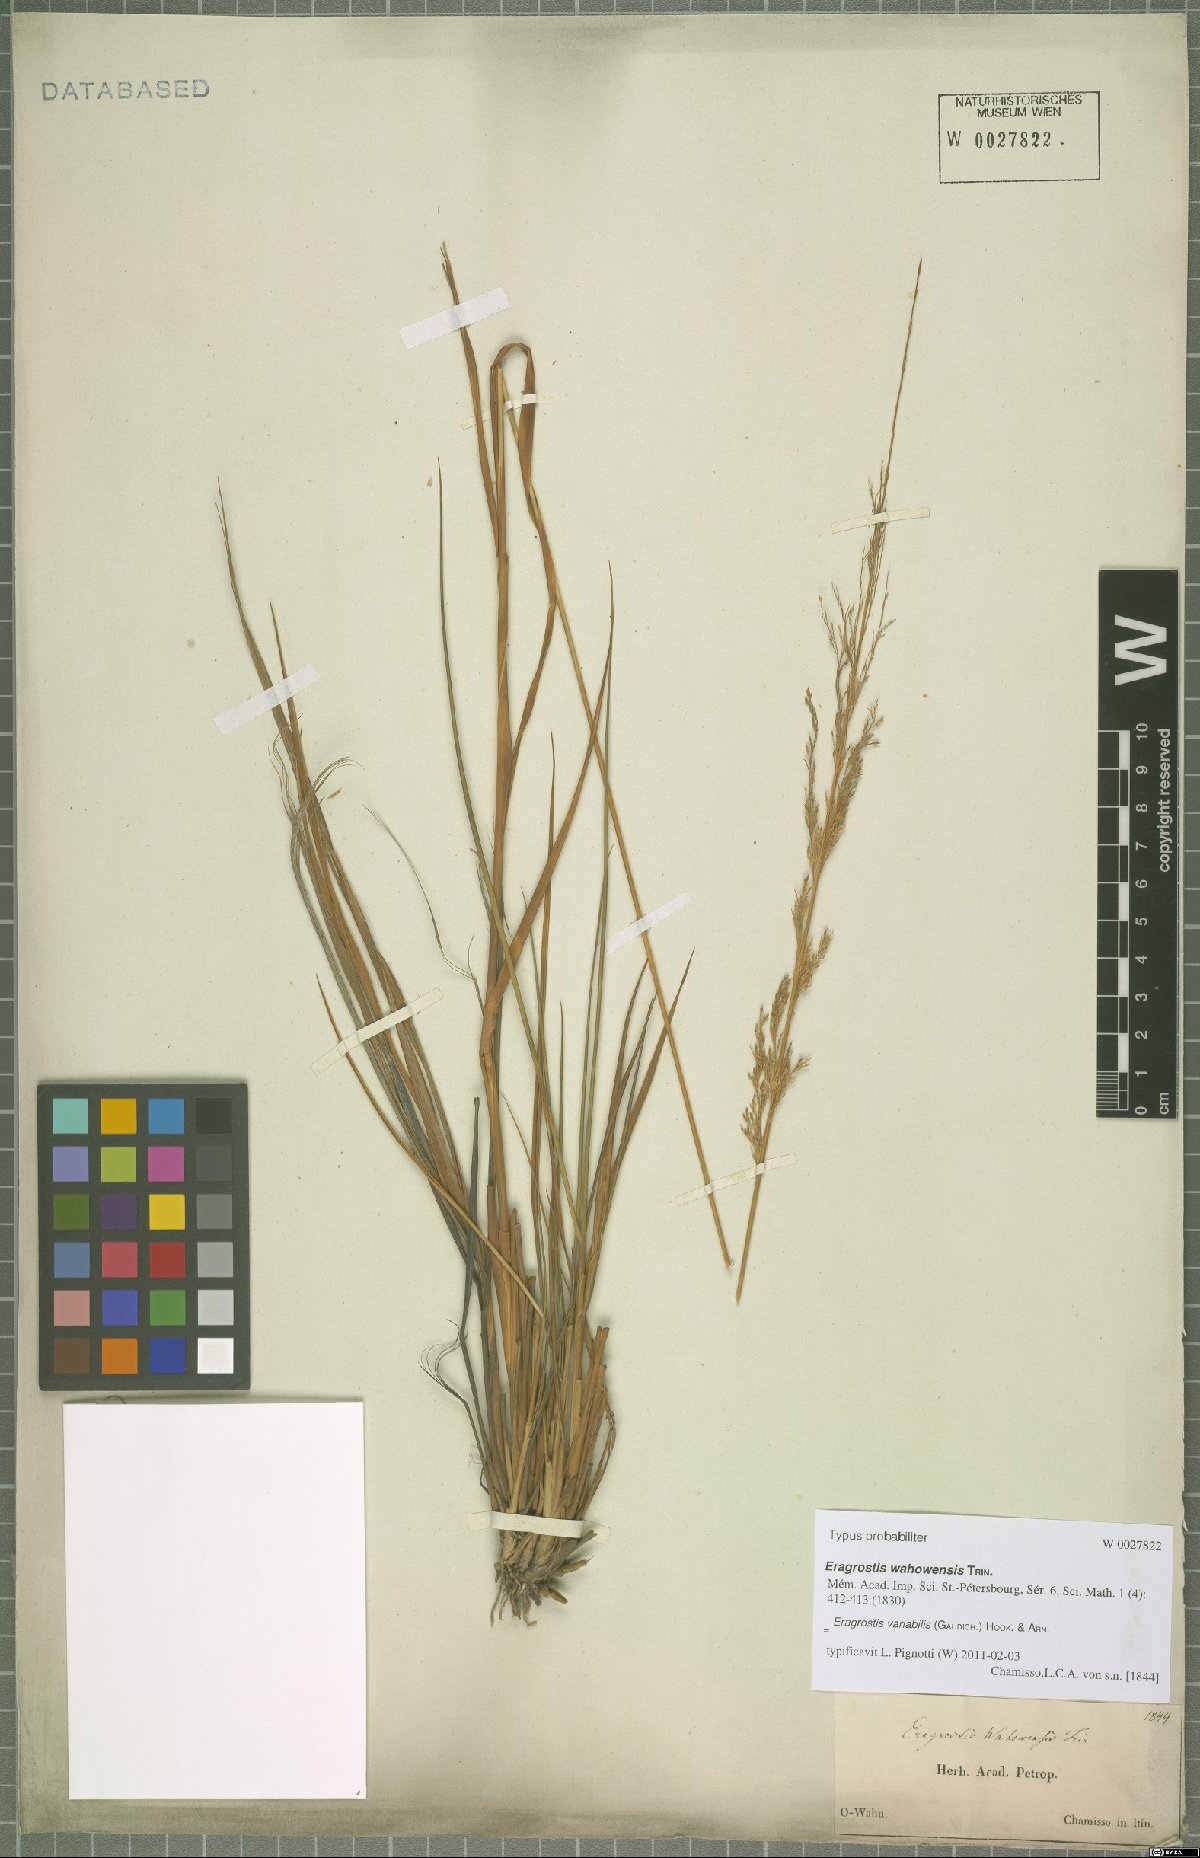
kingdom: Plantae
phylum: Tracheophyta
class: Liliopsida
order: Poales
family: Poaceae
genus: Eragrostis
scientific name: Eragrostis variabilis
